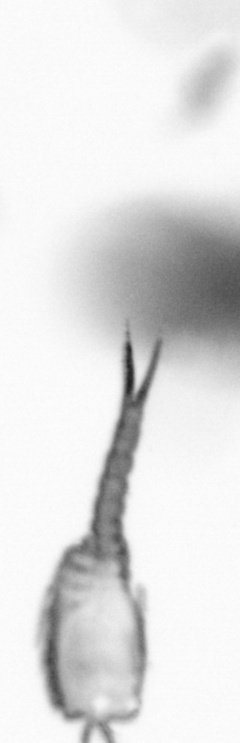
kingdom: Animalia
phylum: Annelida
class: Polychaeta
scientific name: Polychaeta
